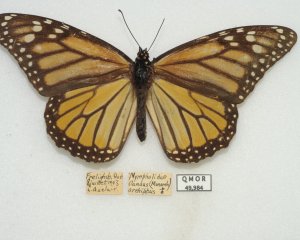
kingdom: Animalia
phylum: Arthropoda
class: Insecta
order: Lepidoptera
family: Nymphalidae
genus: Danaus
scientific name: Danaus plexippus
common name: Monarch
